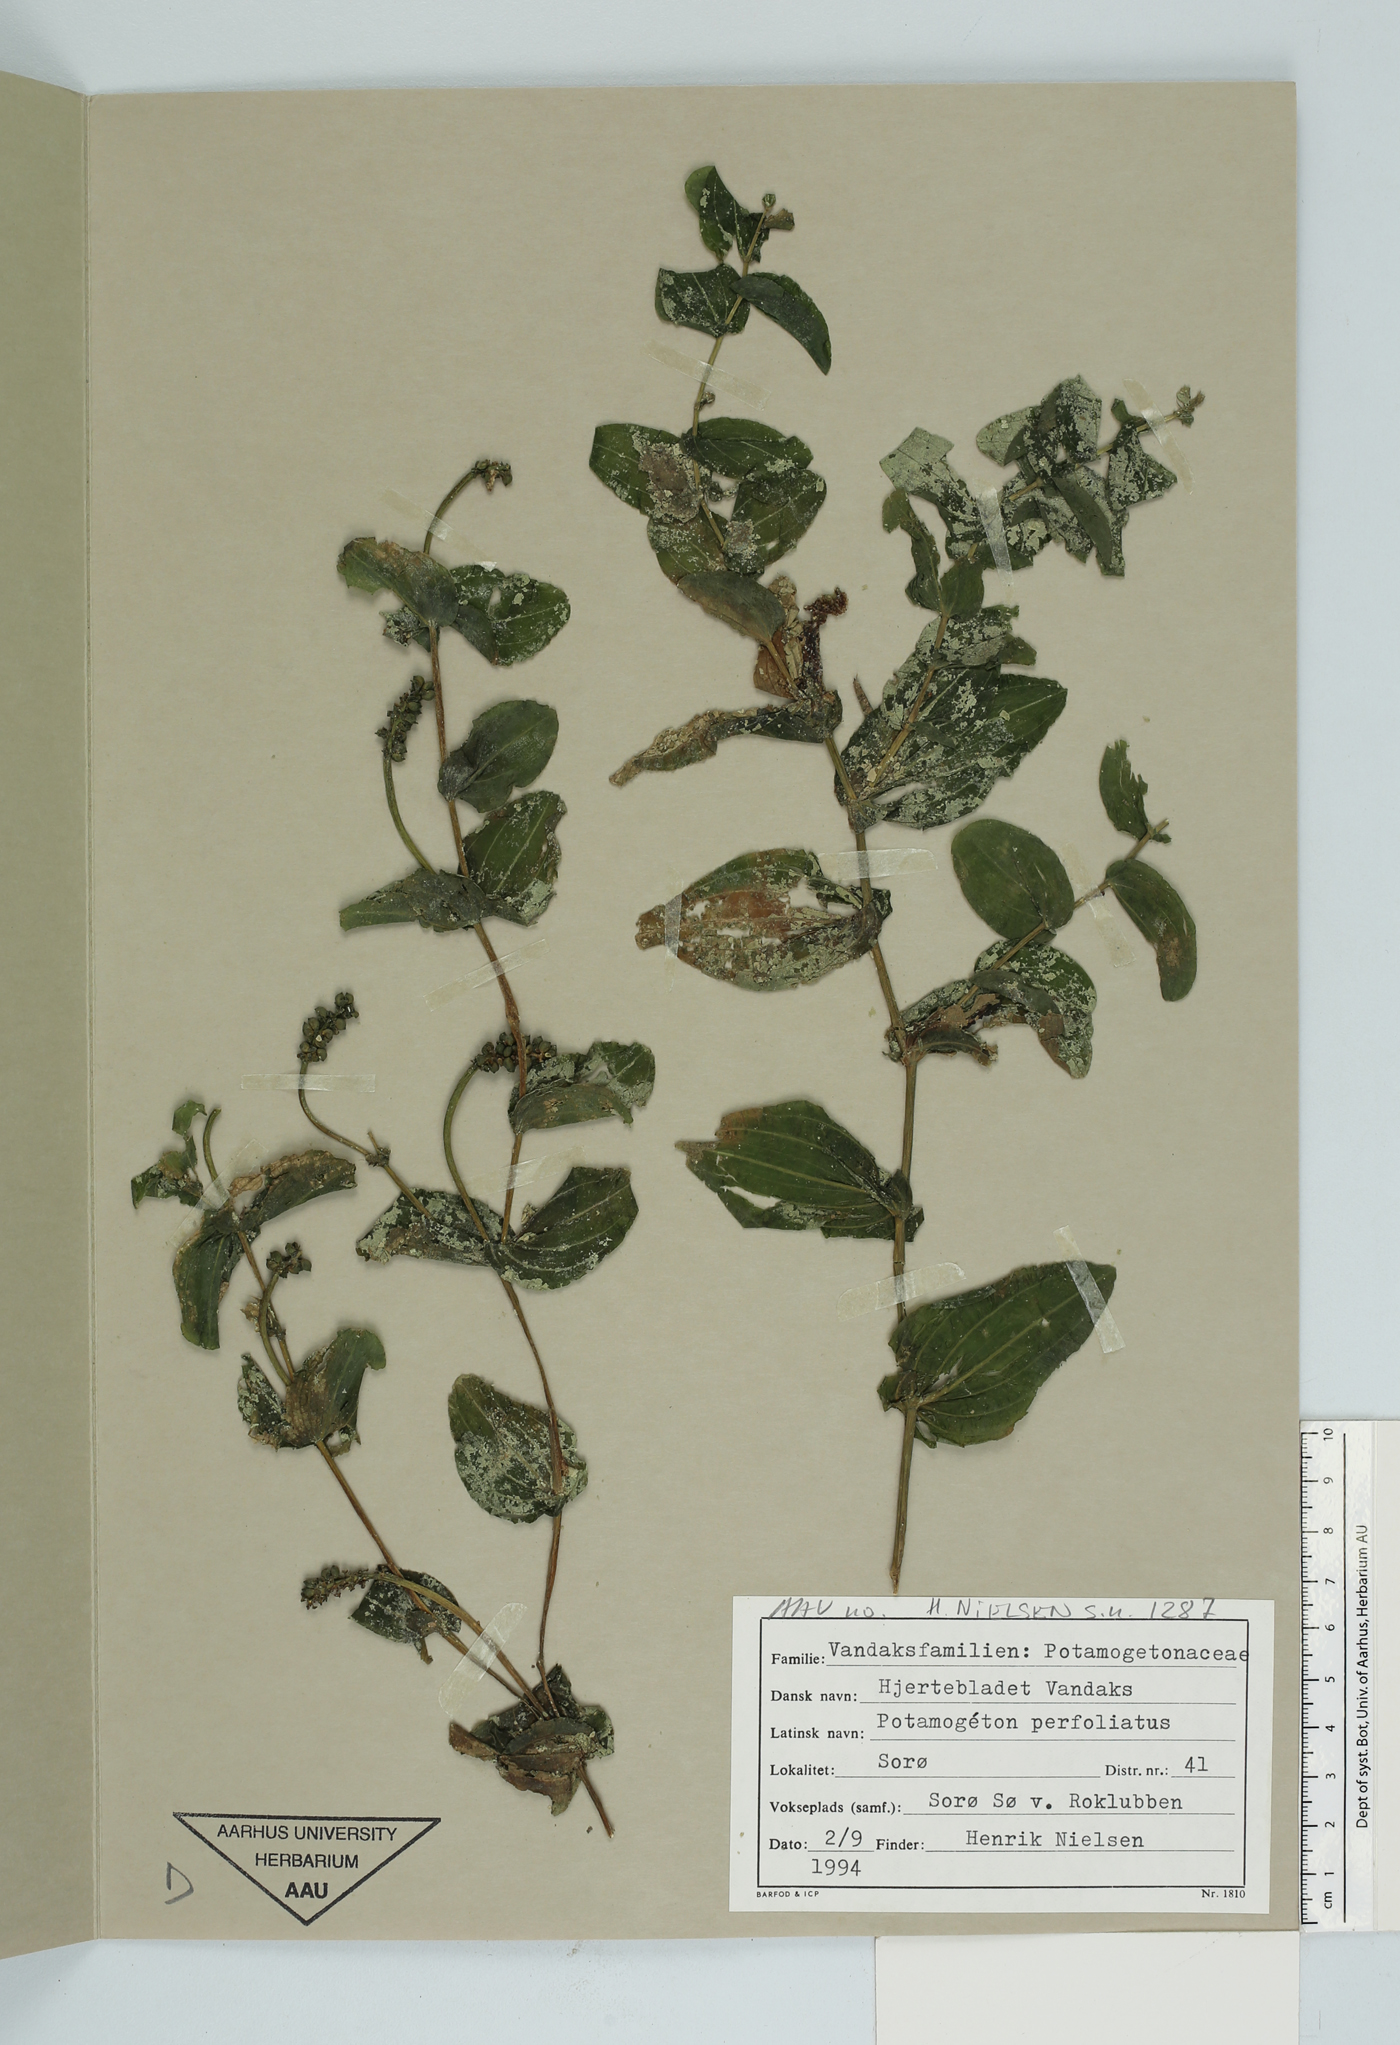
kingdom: Plantae
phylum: Tracheophyta
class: Liliopsida
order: Alismatales
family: Potamogetonaceae
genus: Potamogeton
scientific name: Potamogeton perfoliatus
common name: Perfoliate pondweed
